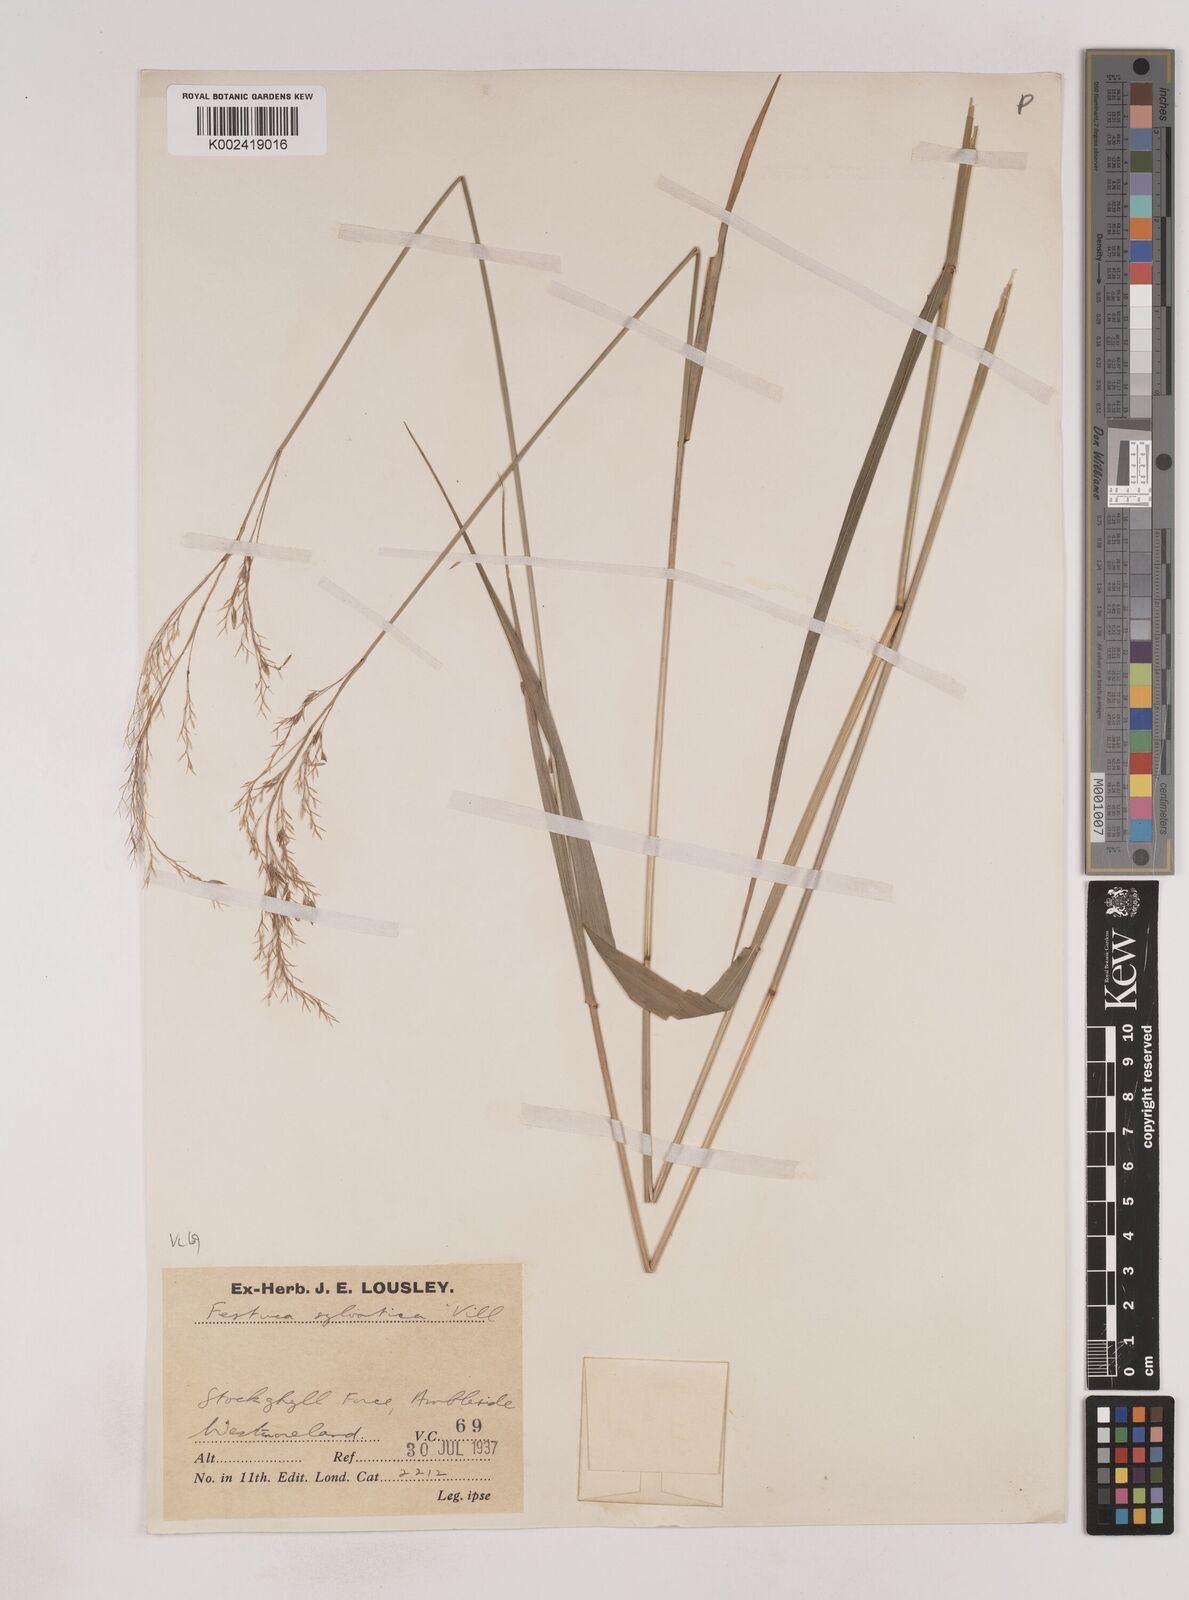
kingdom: Plantae
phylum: Tracheophyta
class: Liliopsida
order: Poales
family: Poaceae
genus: Festuca
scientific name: Festuca drymeja
